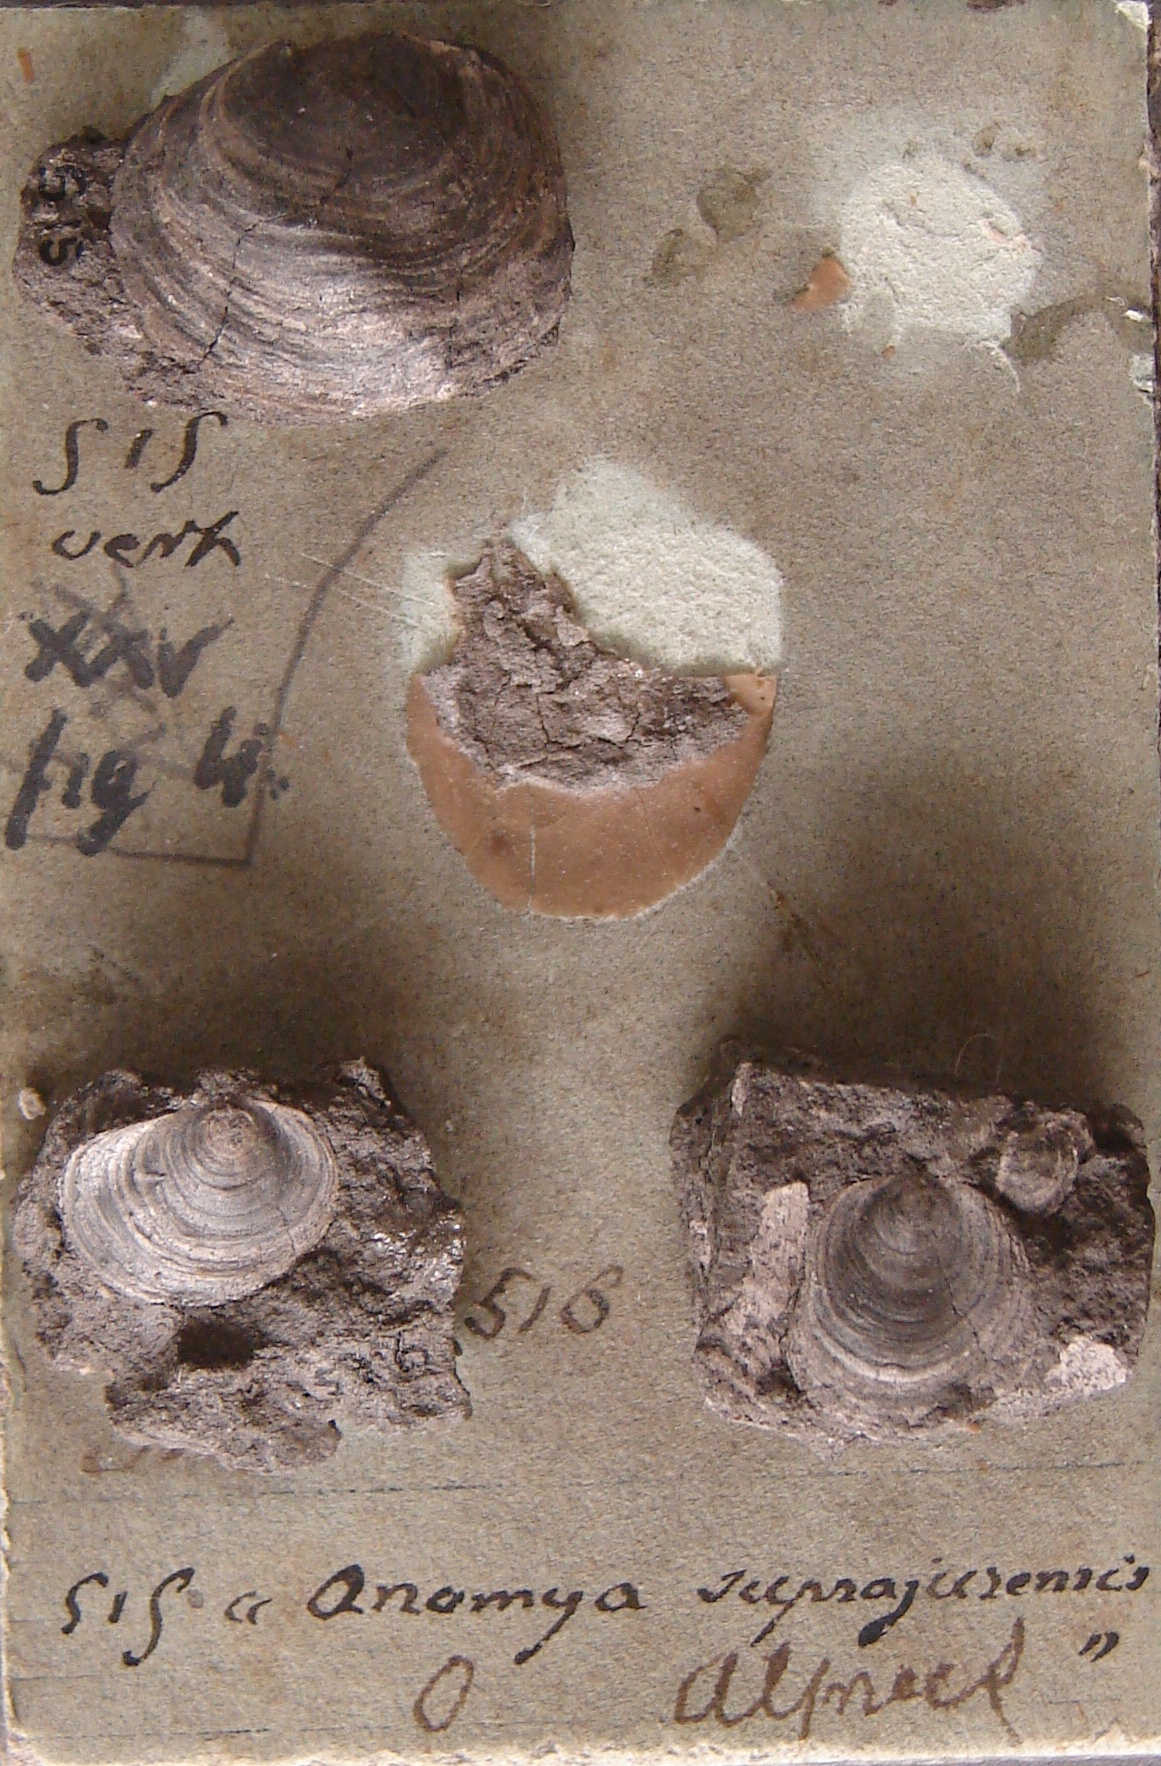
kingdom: Animalia
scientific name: Animalia
